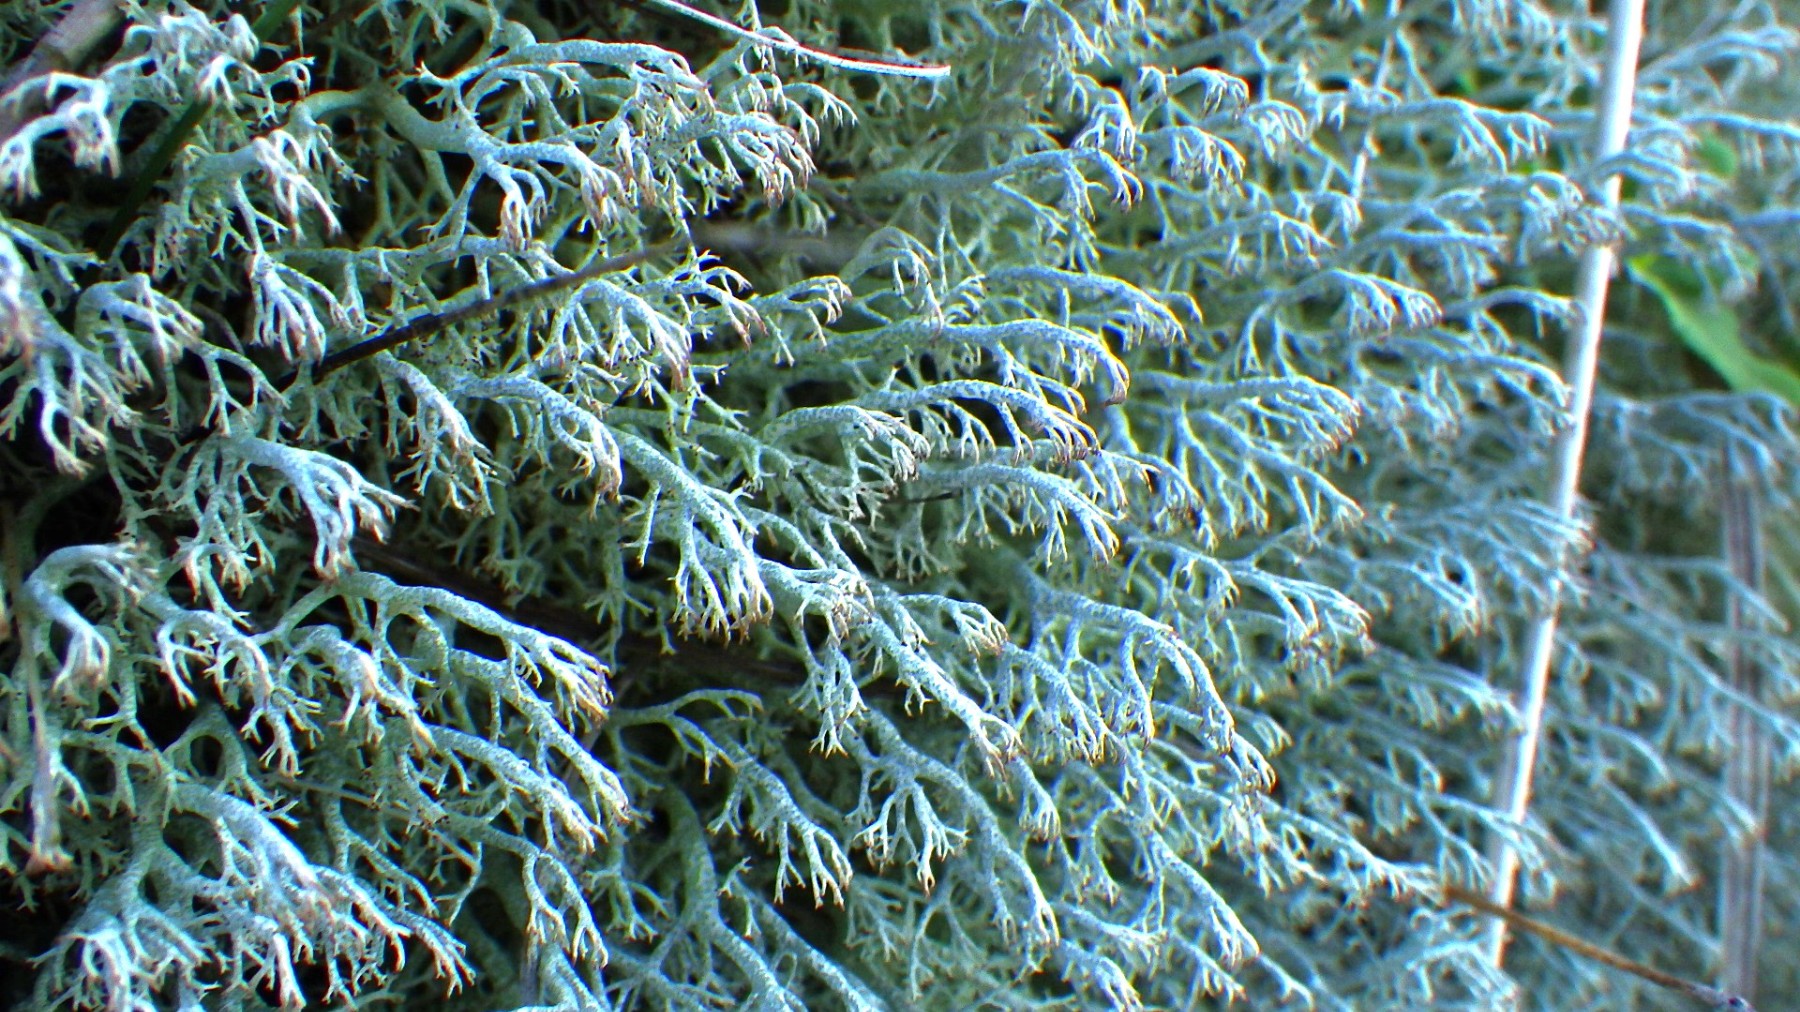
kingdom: Fungi
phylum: Ascomycota
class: Lecanoromycetes
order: Lecanorales
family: Cladoniaceae
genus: Cladonia
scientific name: Cladonia ciliata
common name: spinkel rensdyrlav
